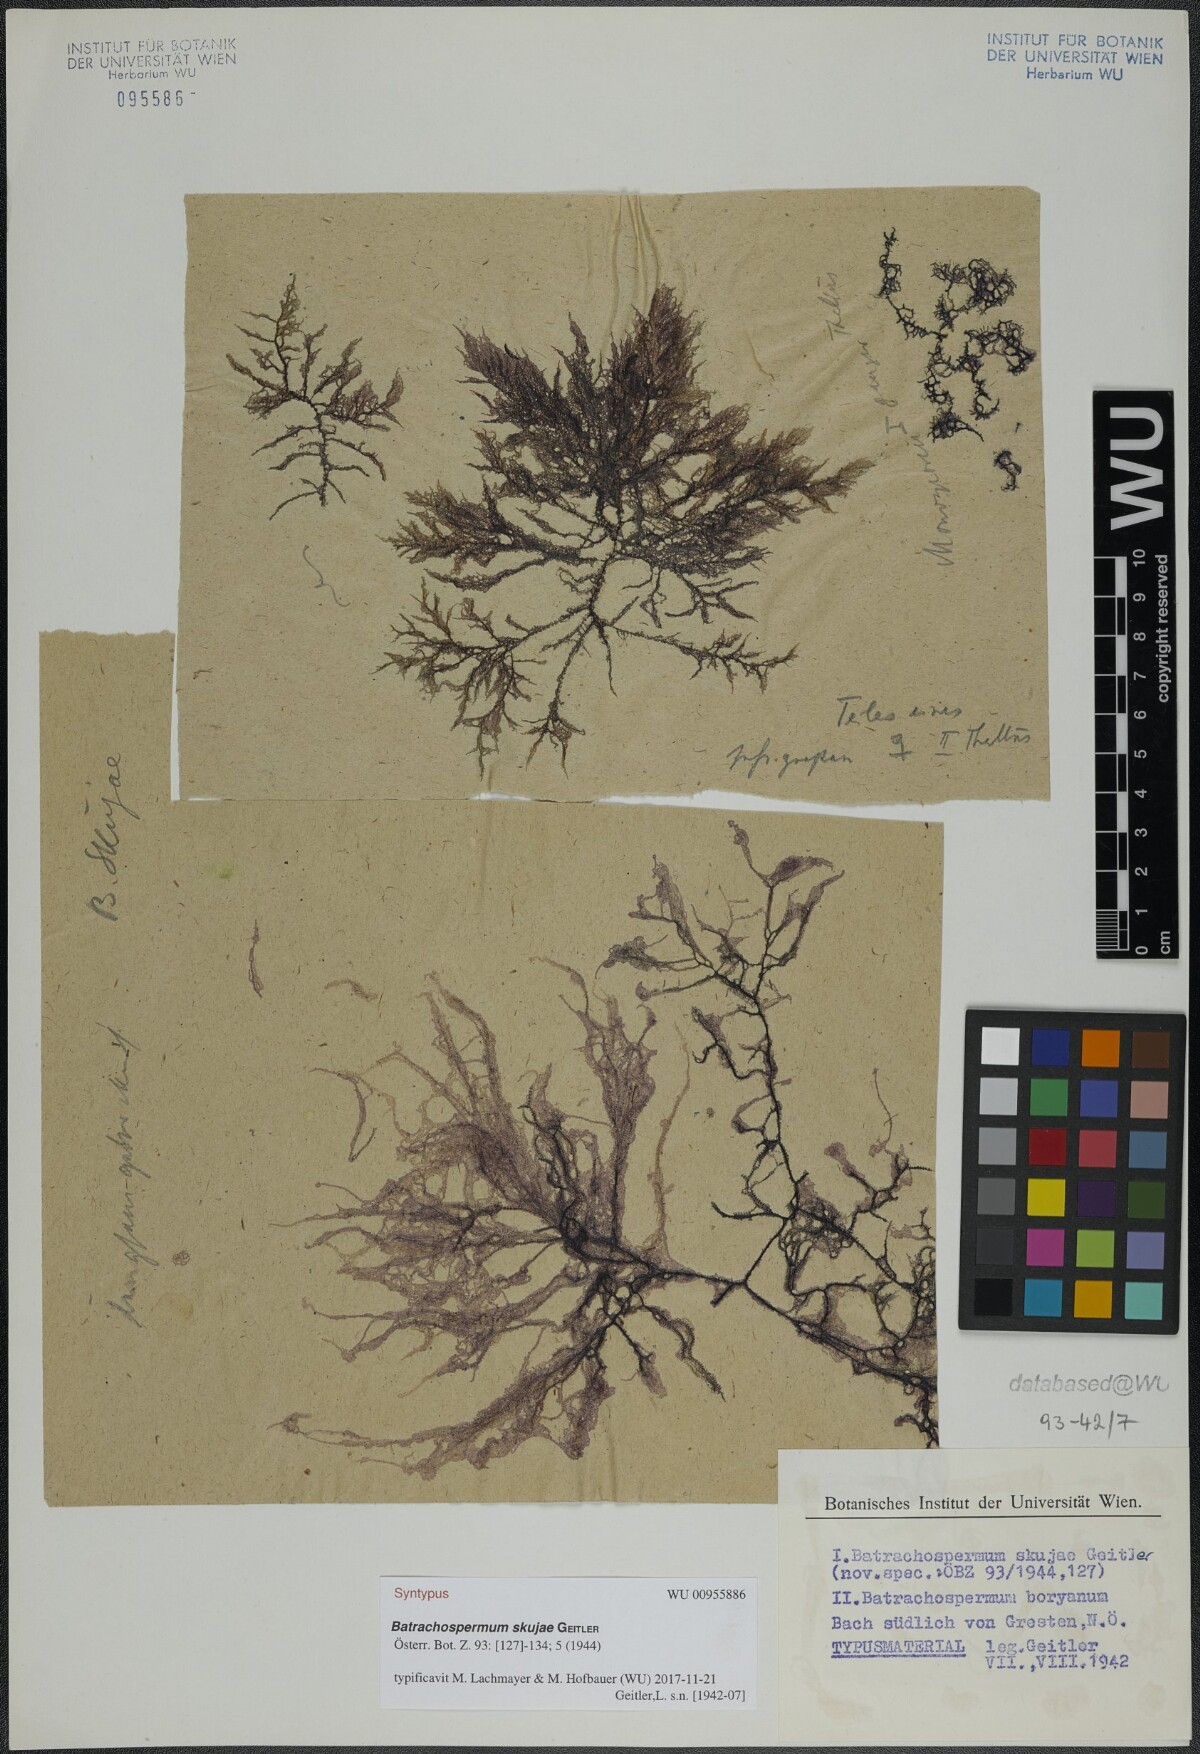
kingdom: Plantae
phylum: Rhodophyta
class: Florideophyceae
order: Batrachospermales
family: Batrachospermaceae
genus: Batrachospermum
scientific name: Batrachospermum gelatinosum
